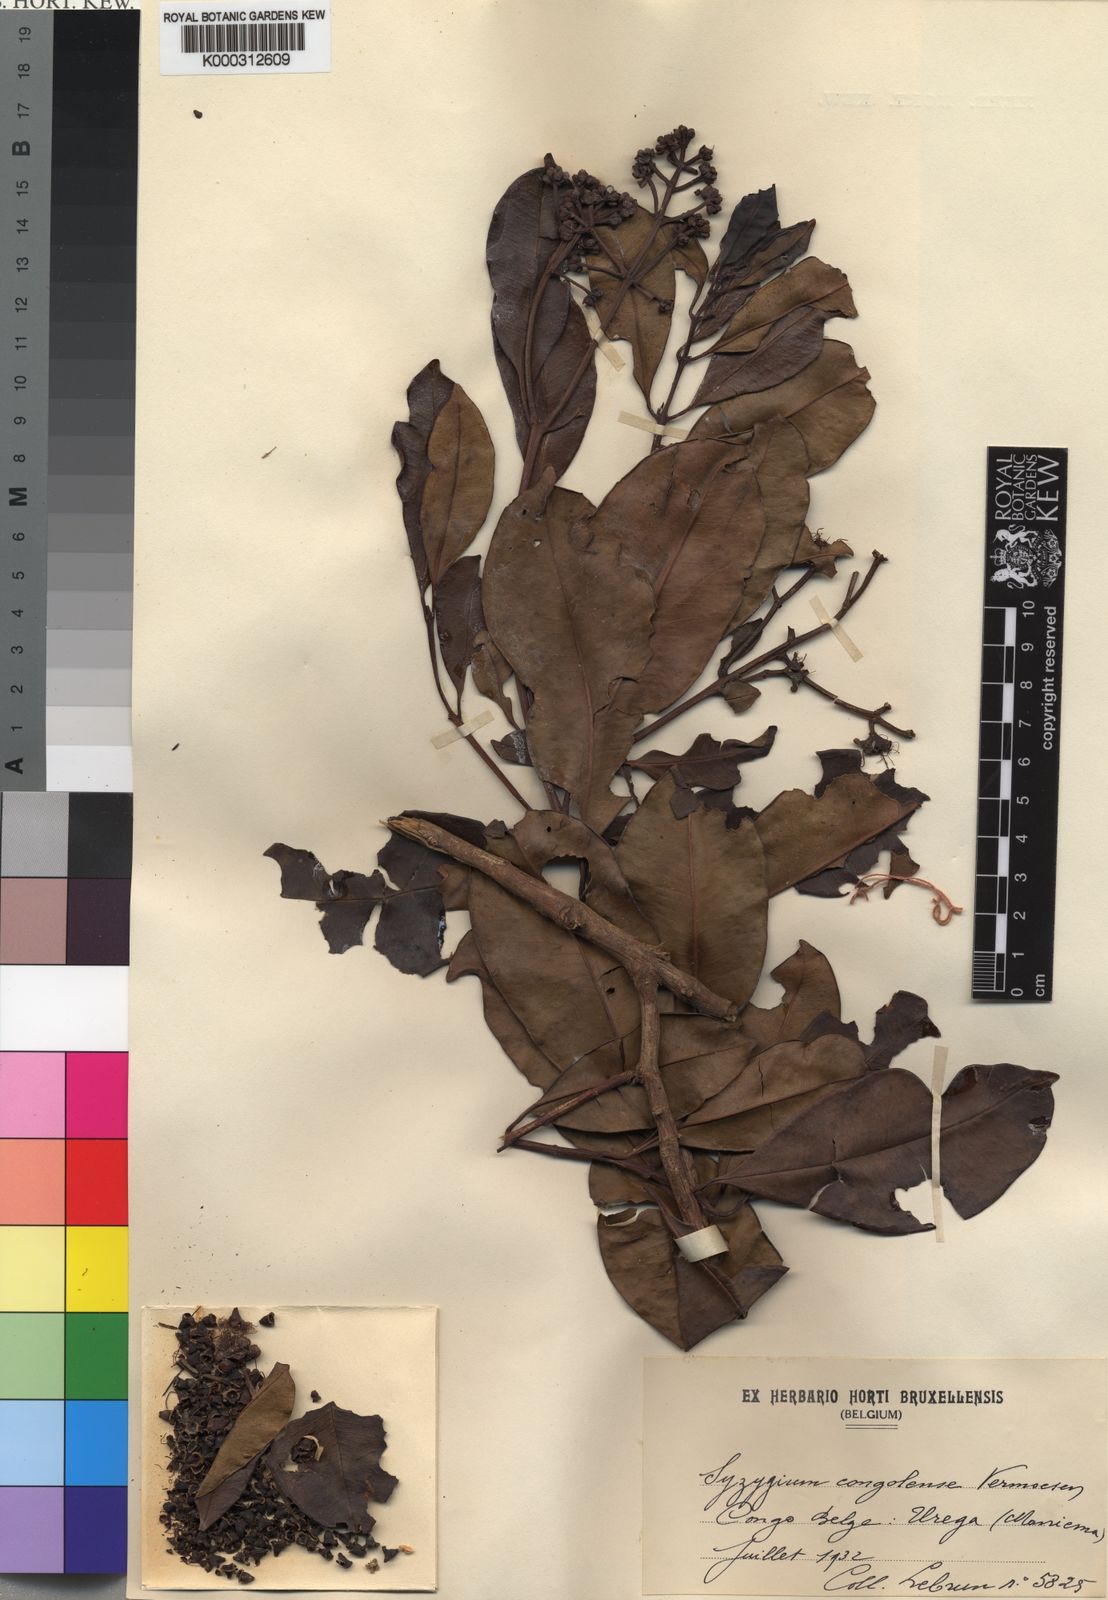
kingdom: Plantae
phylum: Tracheophyta
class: Magnoliopsida
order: Myrtales
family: Myrtaceae
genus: Syzygium
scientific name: Syzygium congolense
